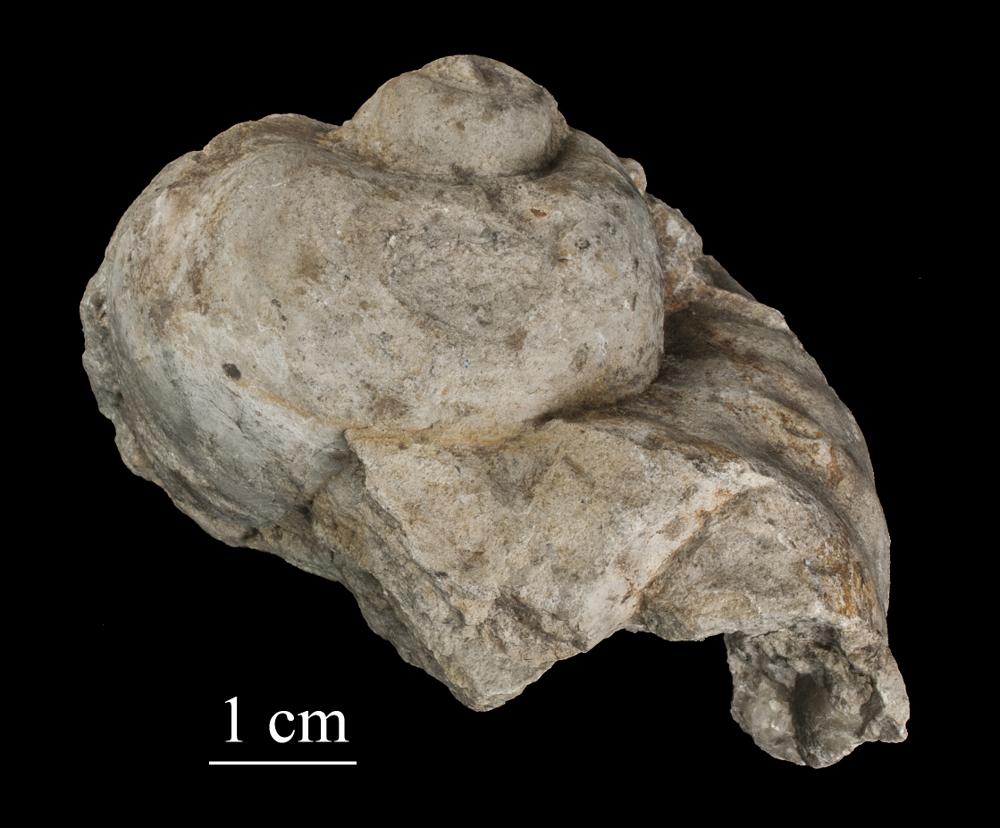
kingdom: Animalia
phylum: Mollusca
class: Gastropoda
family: Holopeidae
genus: Holopea
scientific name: Holopea ampullacea
